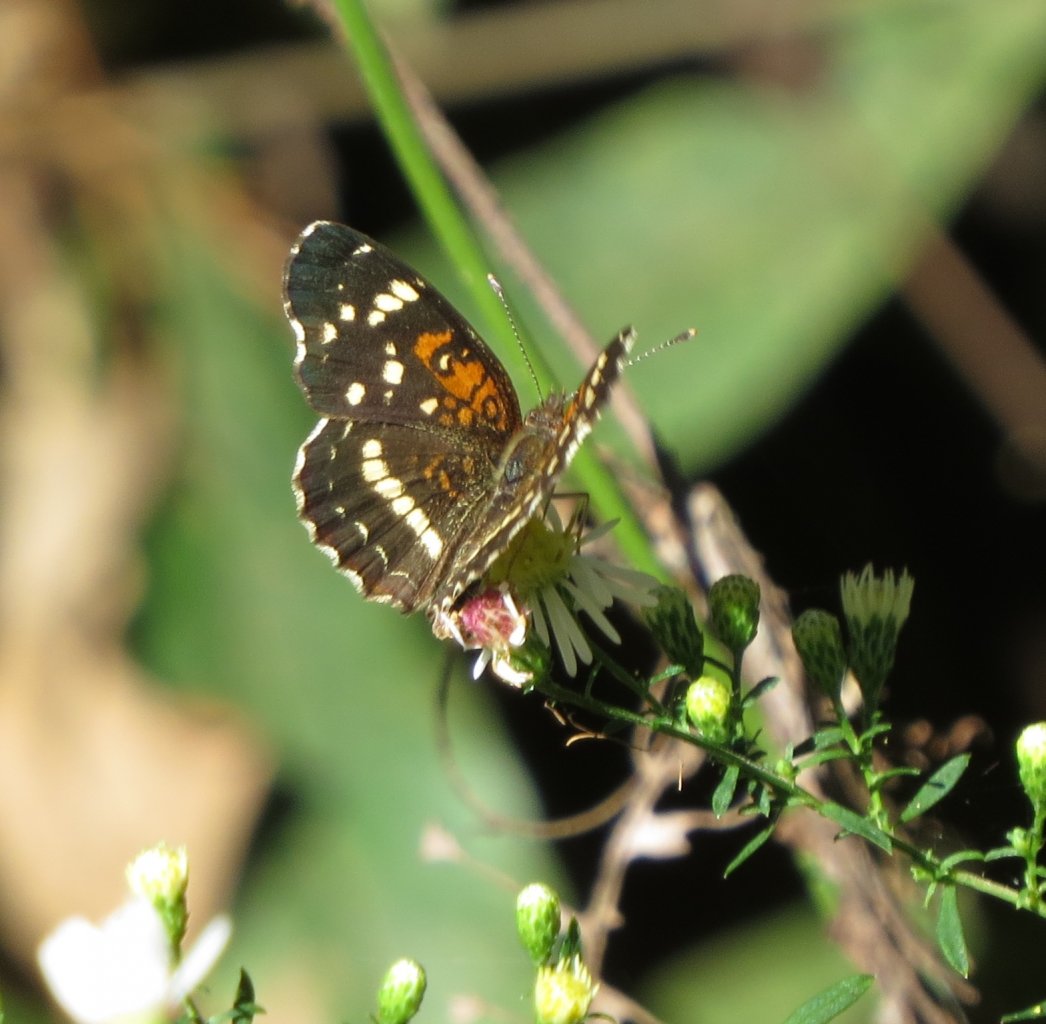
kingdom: Animalia
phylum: Arthropoda
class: Insecta
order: Lepidoptera
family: Nymphalidae
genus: Anthanassa
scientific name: Anthanassa texana
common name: Texan Crescent
